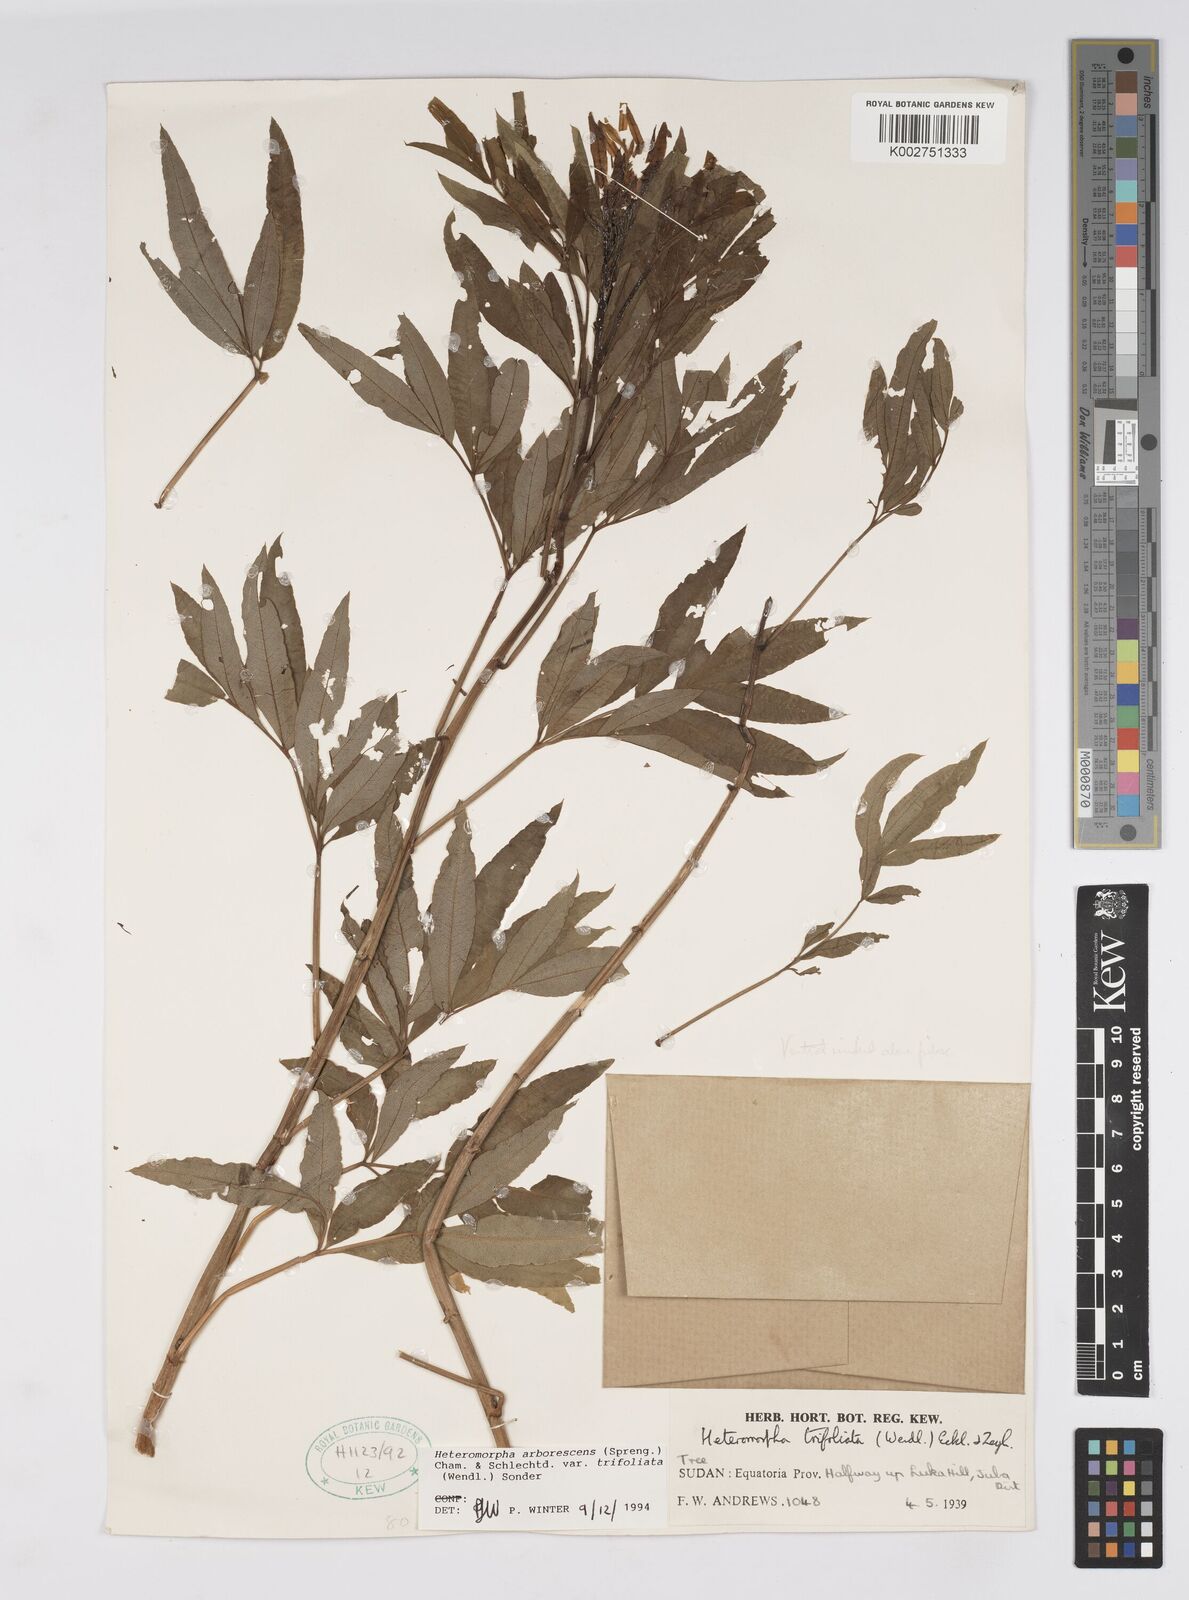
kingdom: Plantae
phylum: Tracheophyta
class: Magnoliopsida
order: Apiales
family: Apiaceae
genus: Heteromorpha
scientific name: Heteromorpha arborescens
